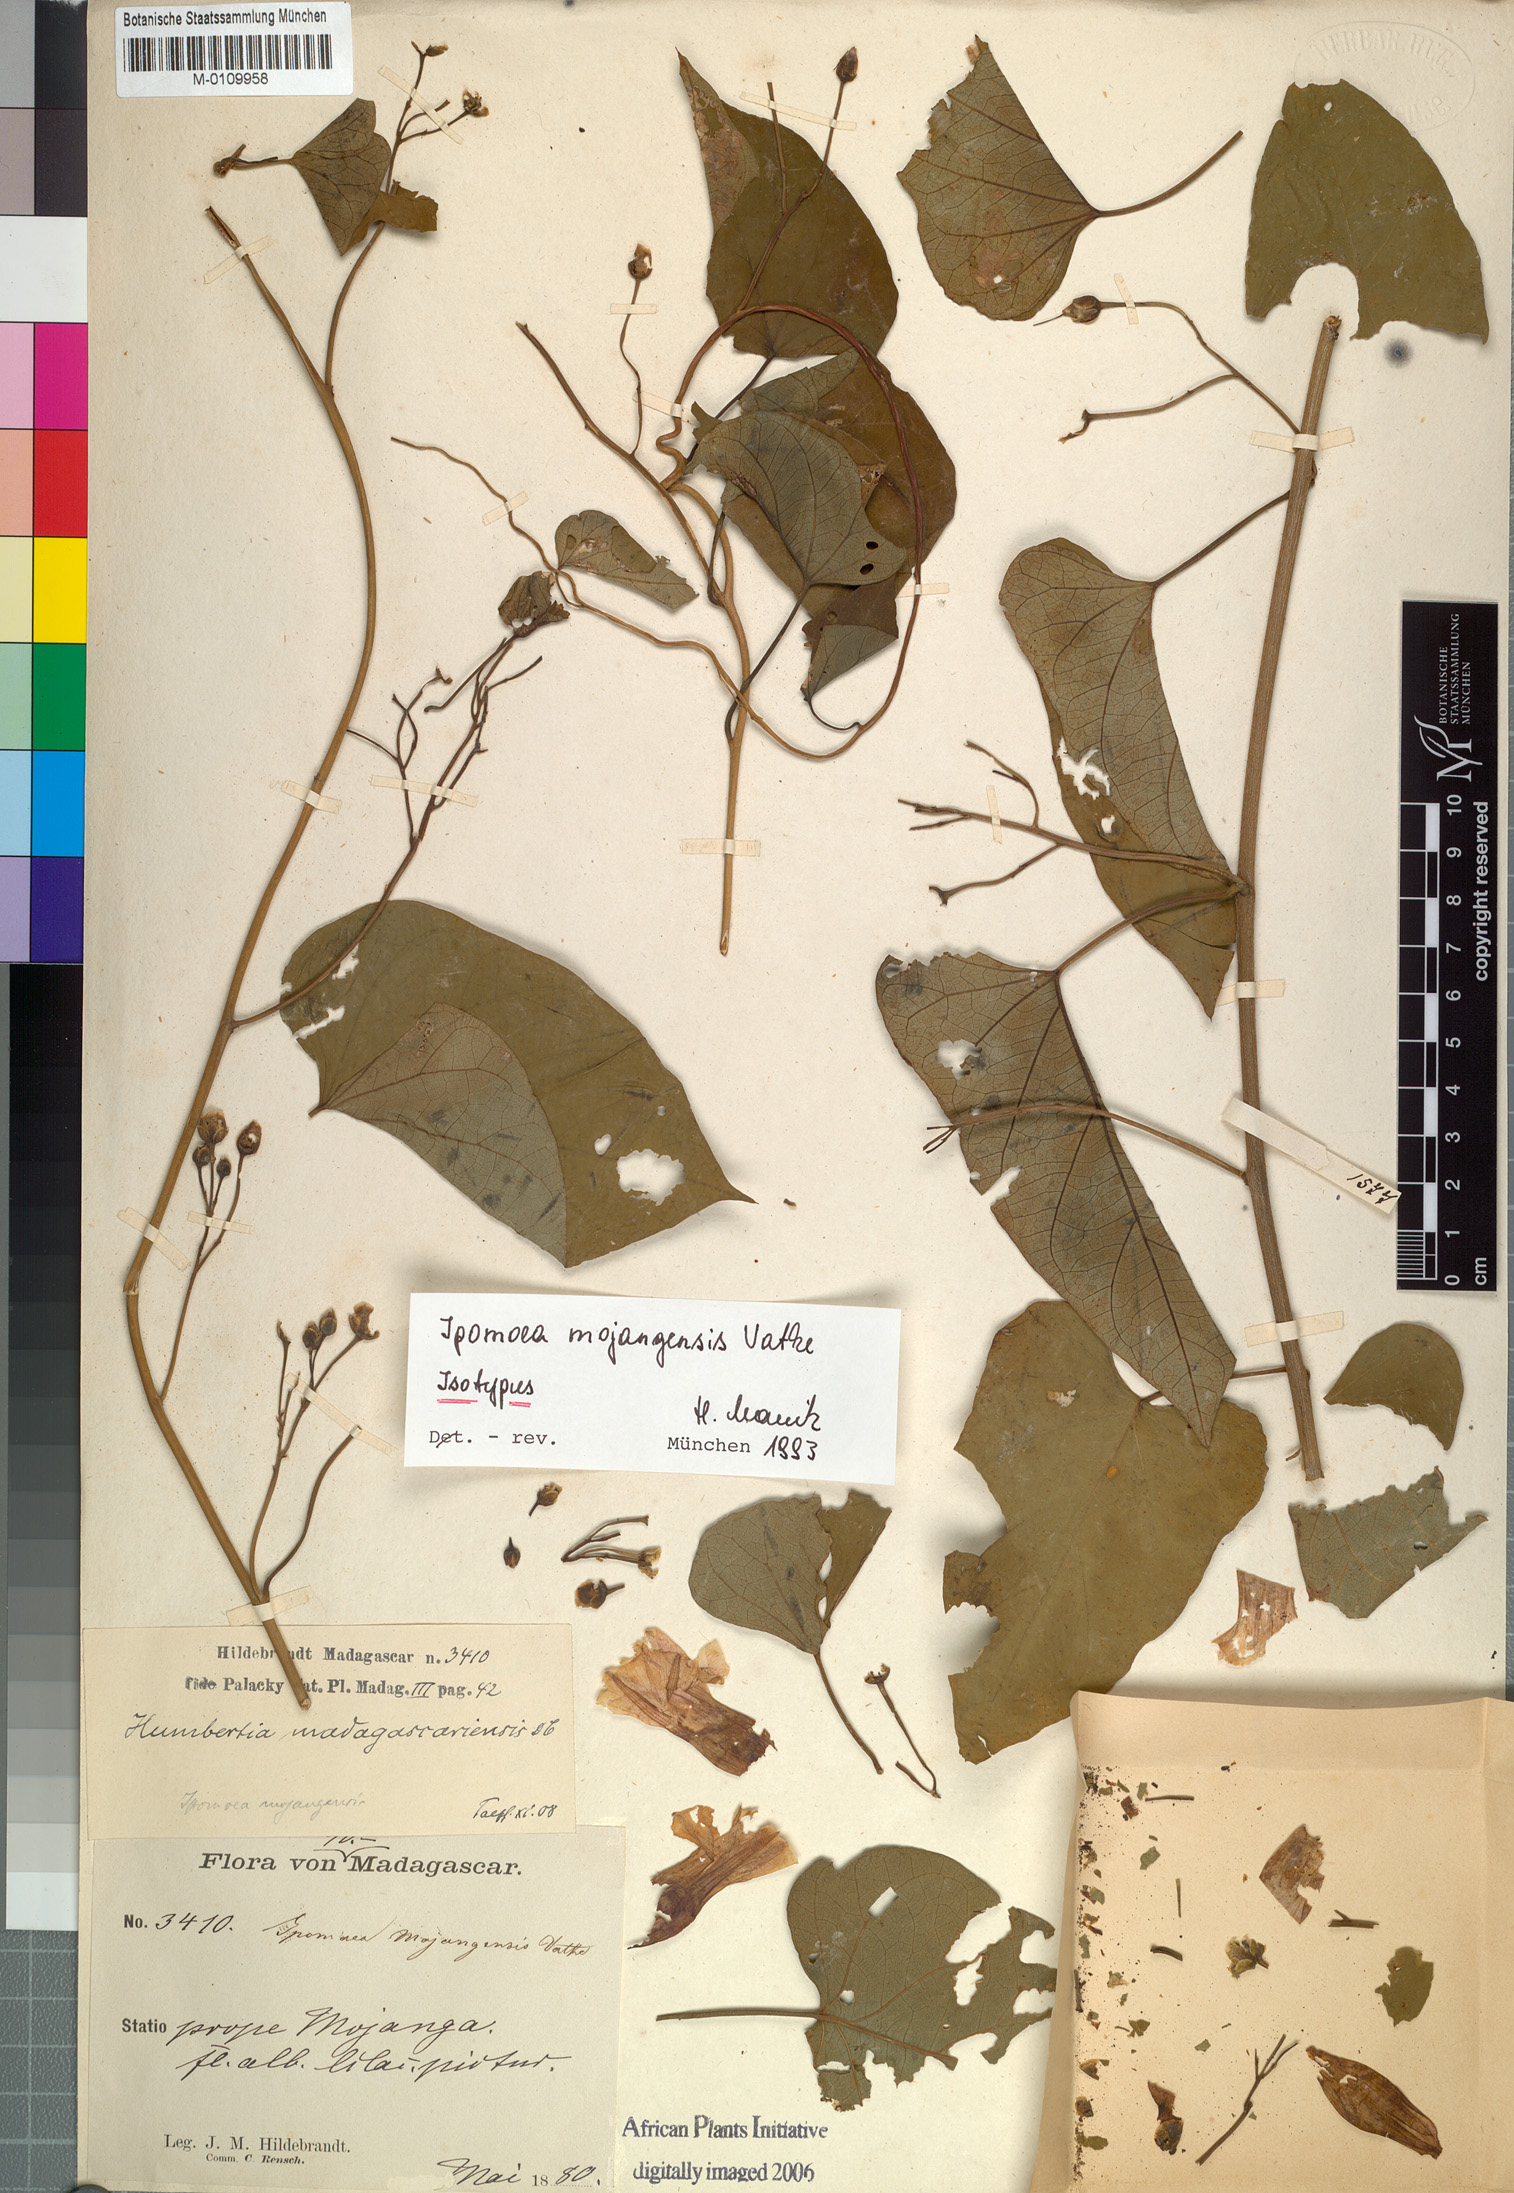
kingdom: Plantae
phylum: Tracheophyta
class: Magnoliopsida
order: Solanales
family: Convolvulaceae
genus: Stictocardia
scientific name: Stictocardia mojangensis
